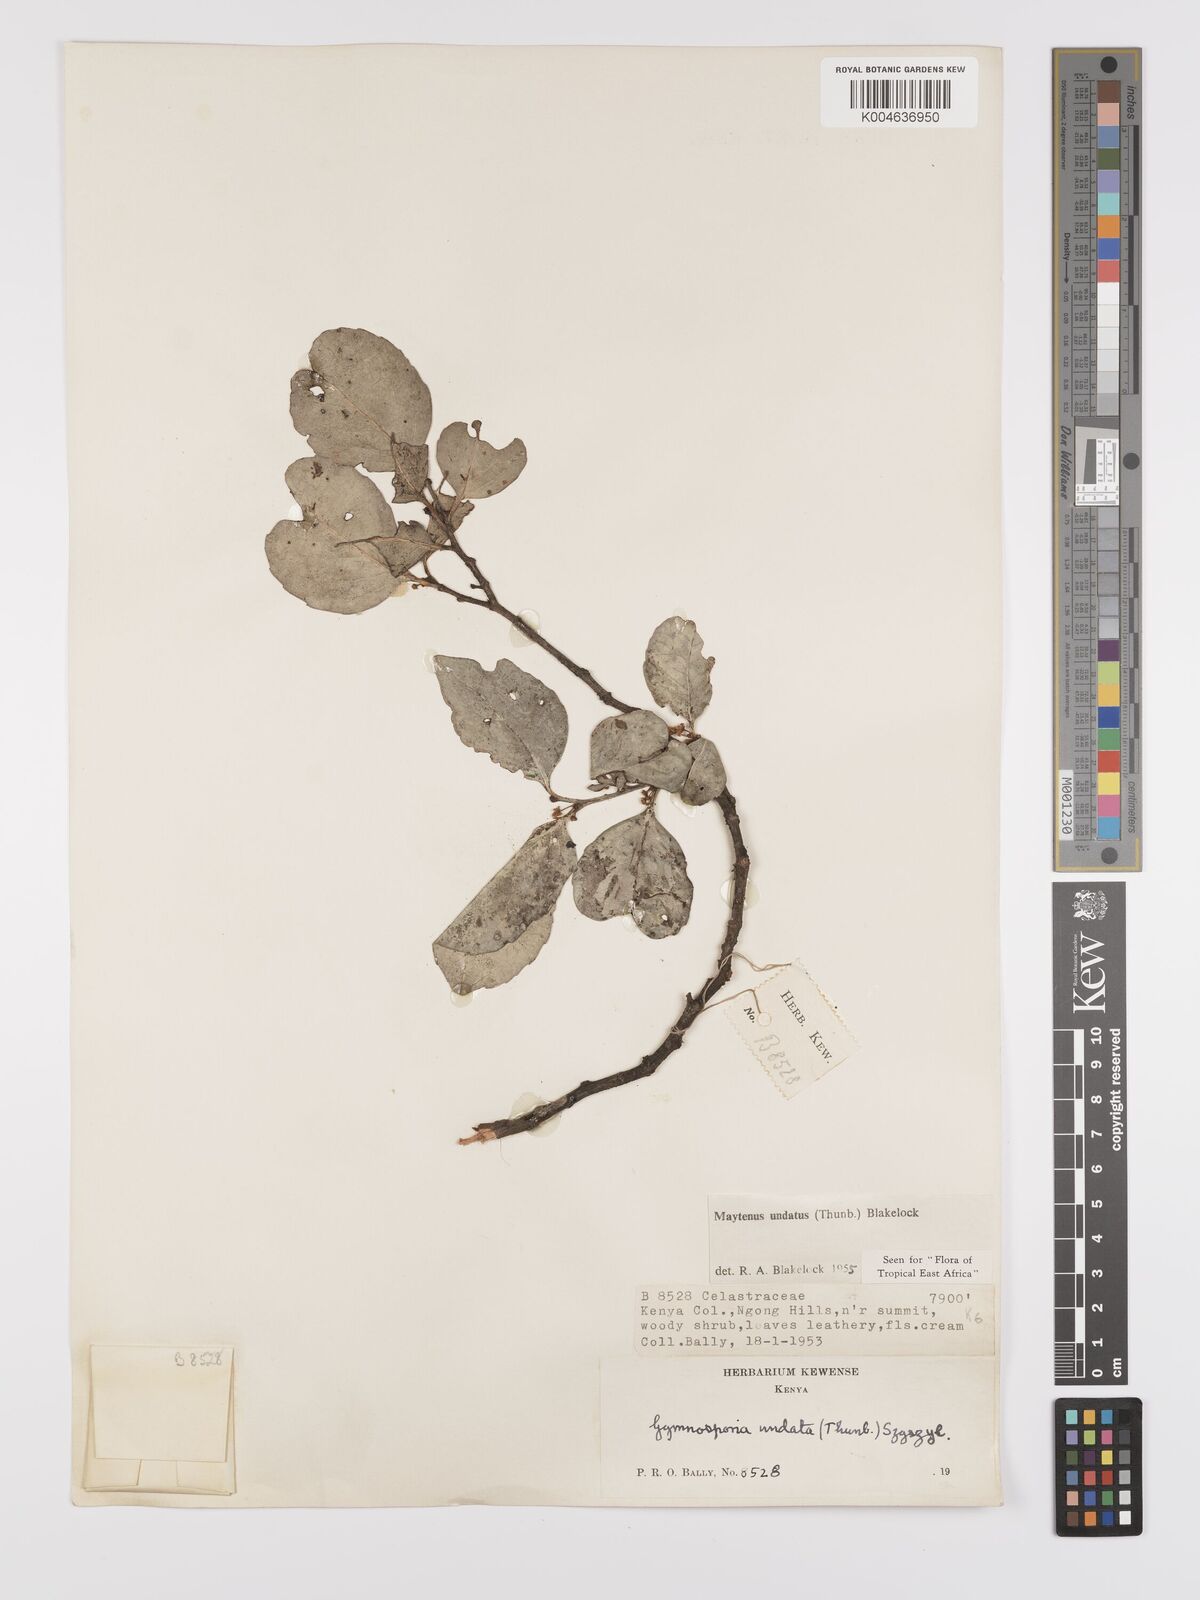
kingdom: Plantae
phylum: Tracheophyta
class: Magnoliopsida
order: Celastrales
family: Celastraceae
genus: Gymnosporia
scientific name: Gymnosporia undata
